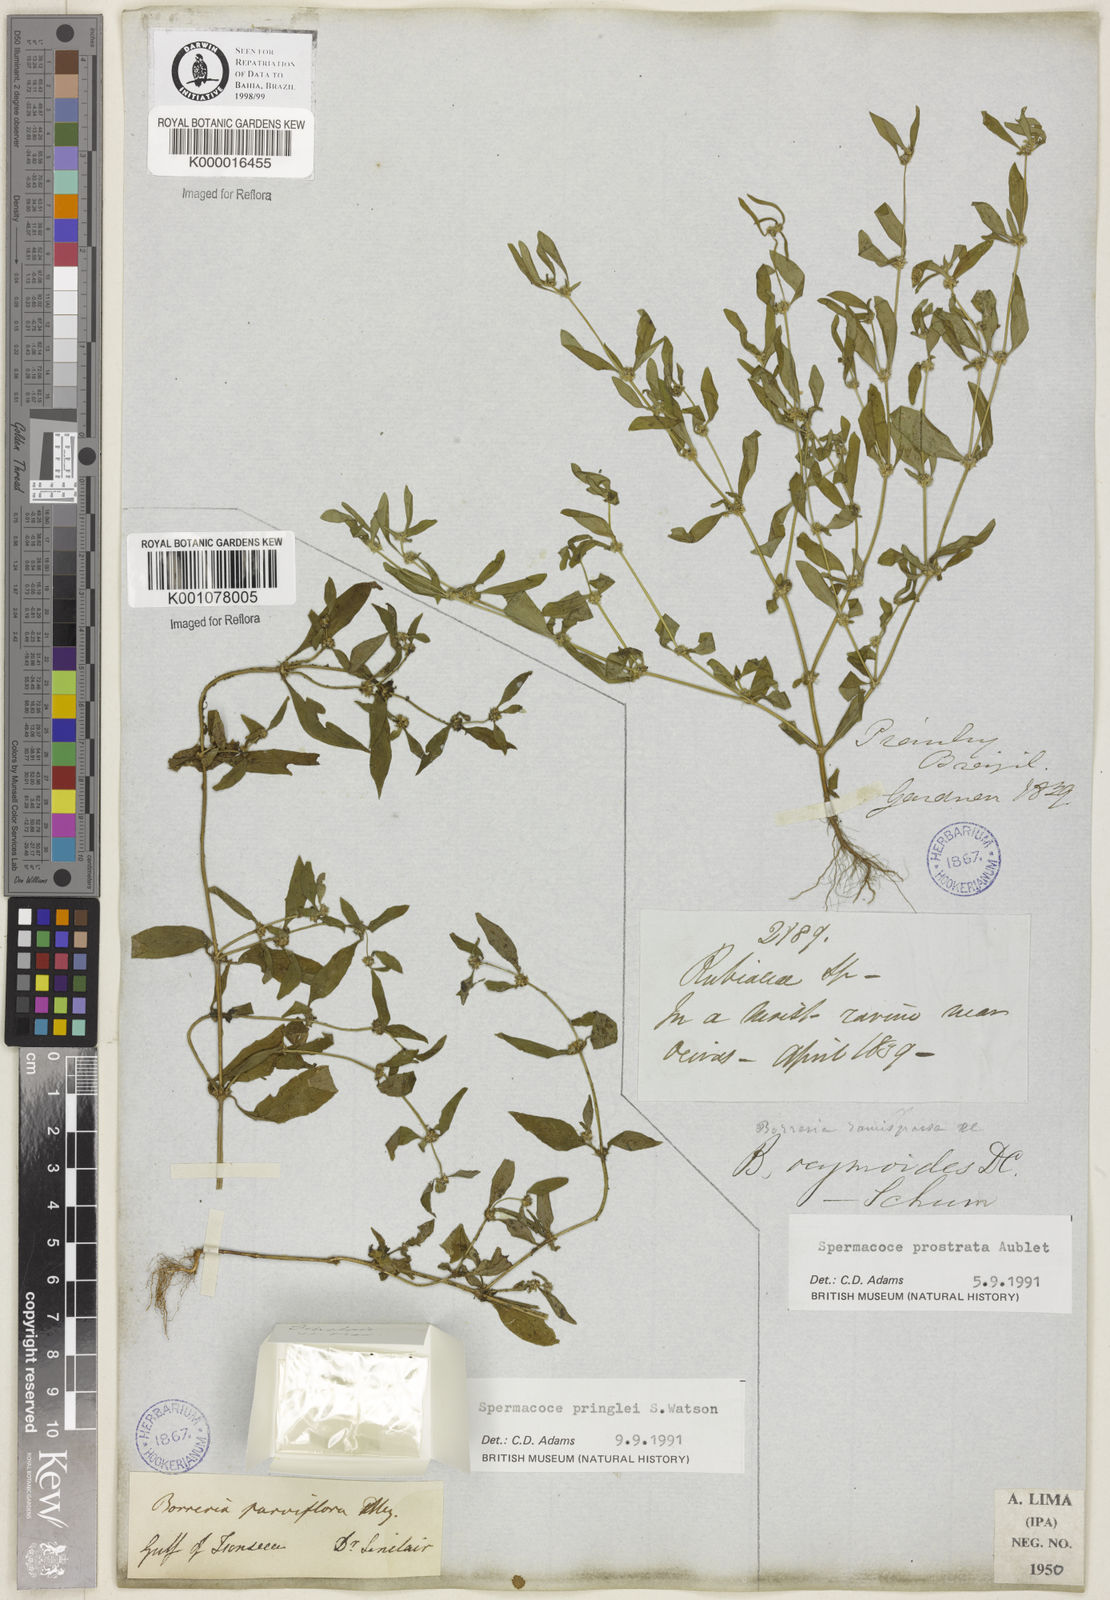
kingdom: Plantae
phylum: Tracheophyta
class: Magnoliopsida
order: Gentianales
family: Rubiaceae
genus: Spermacoce
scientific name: Spermacoce prostrata
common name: Prostrate false buttonweed
